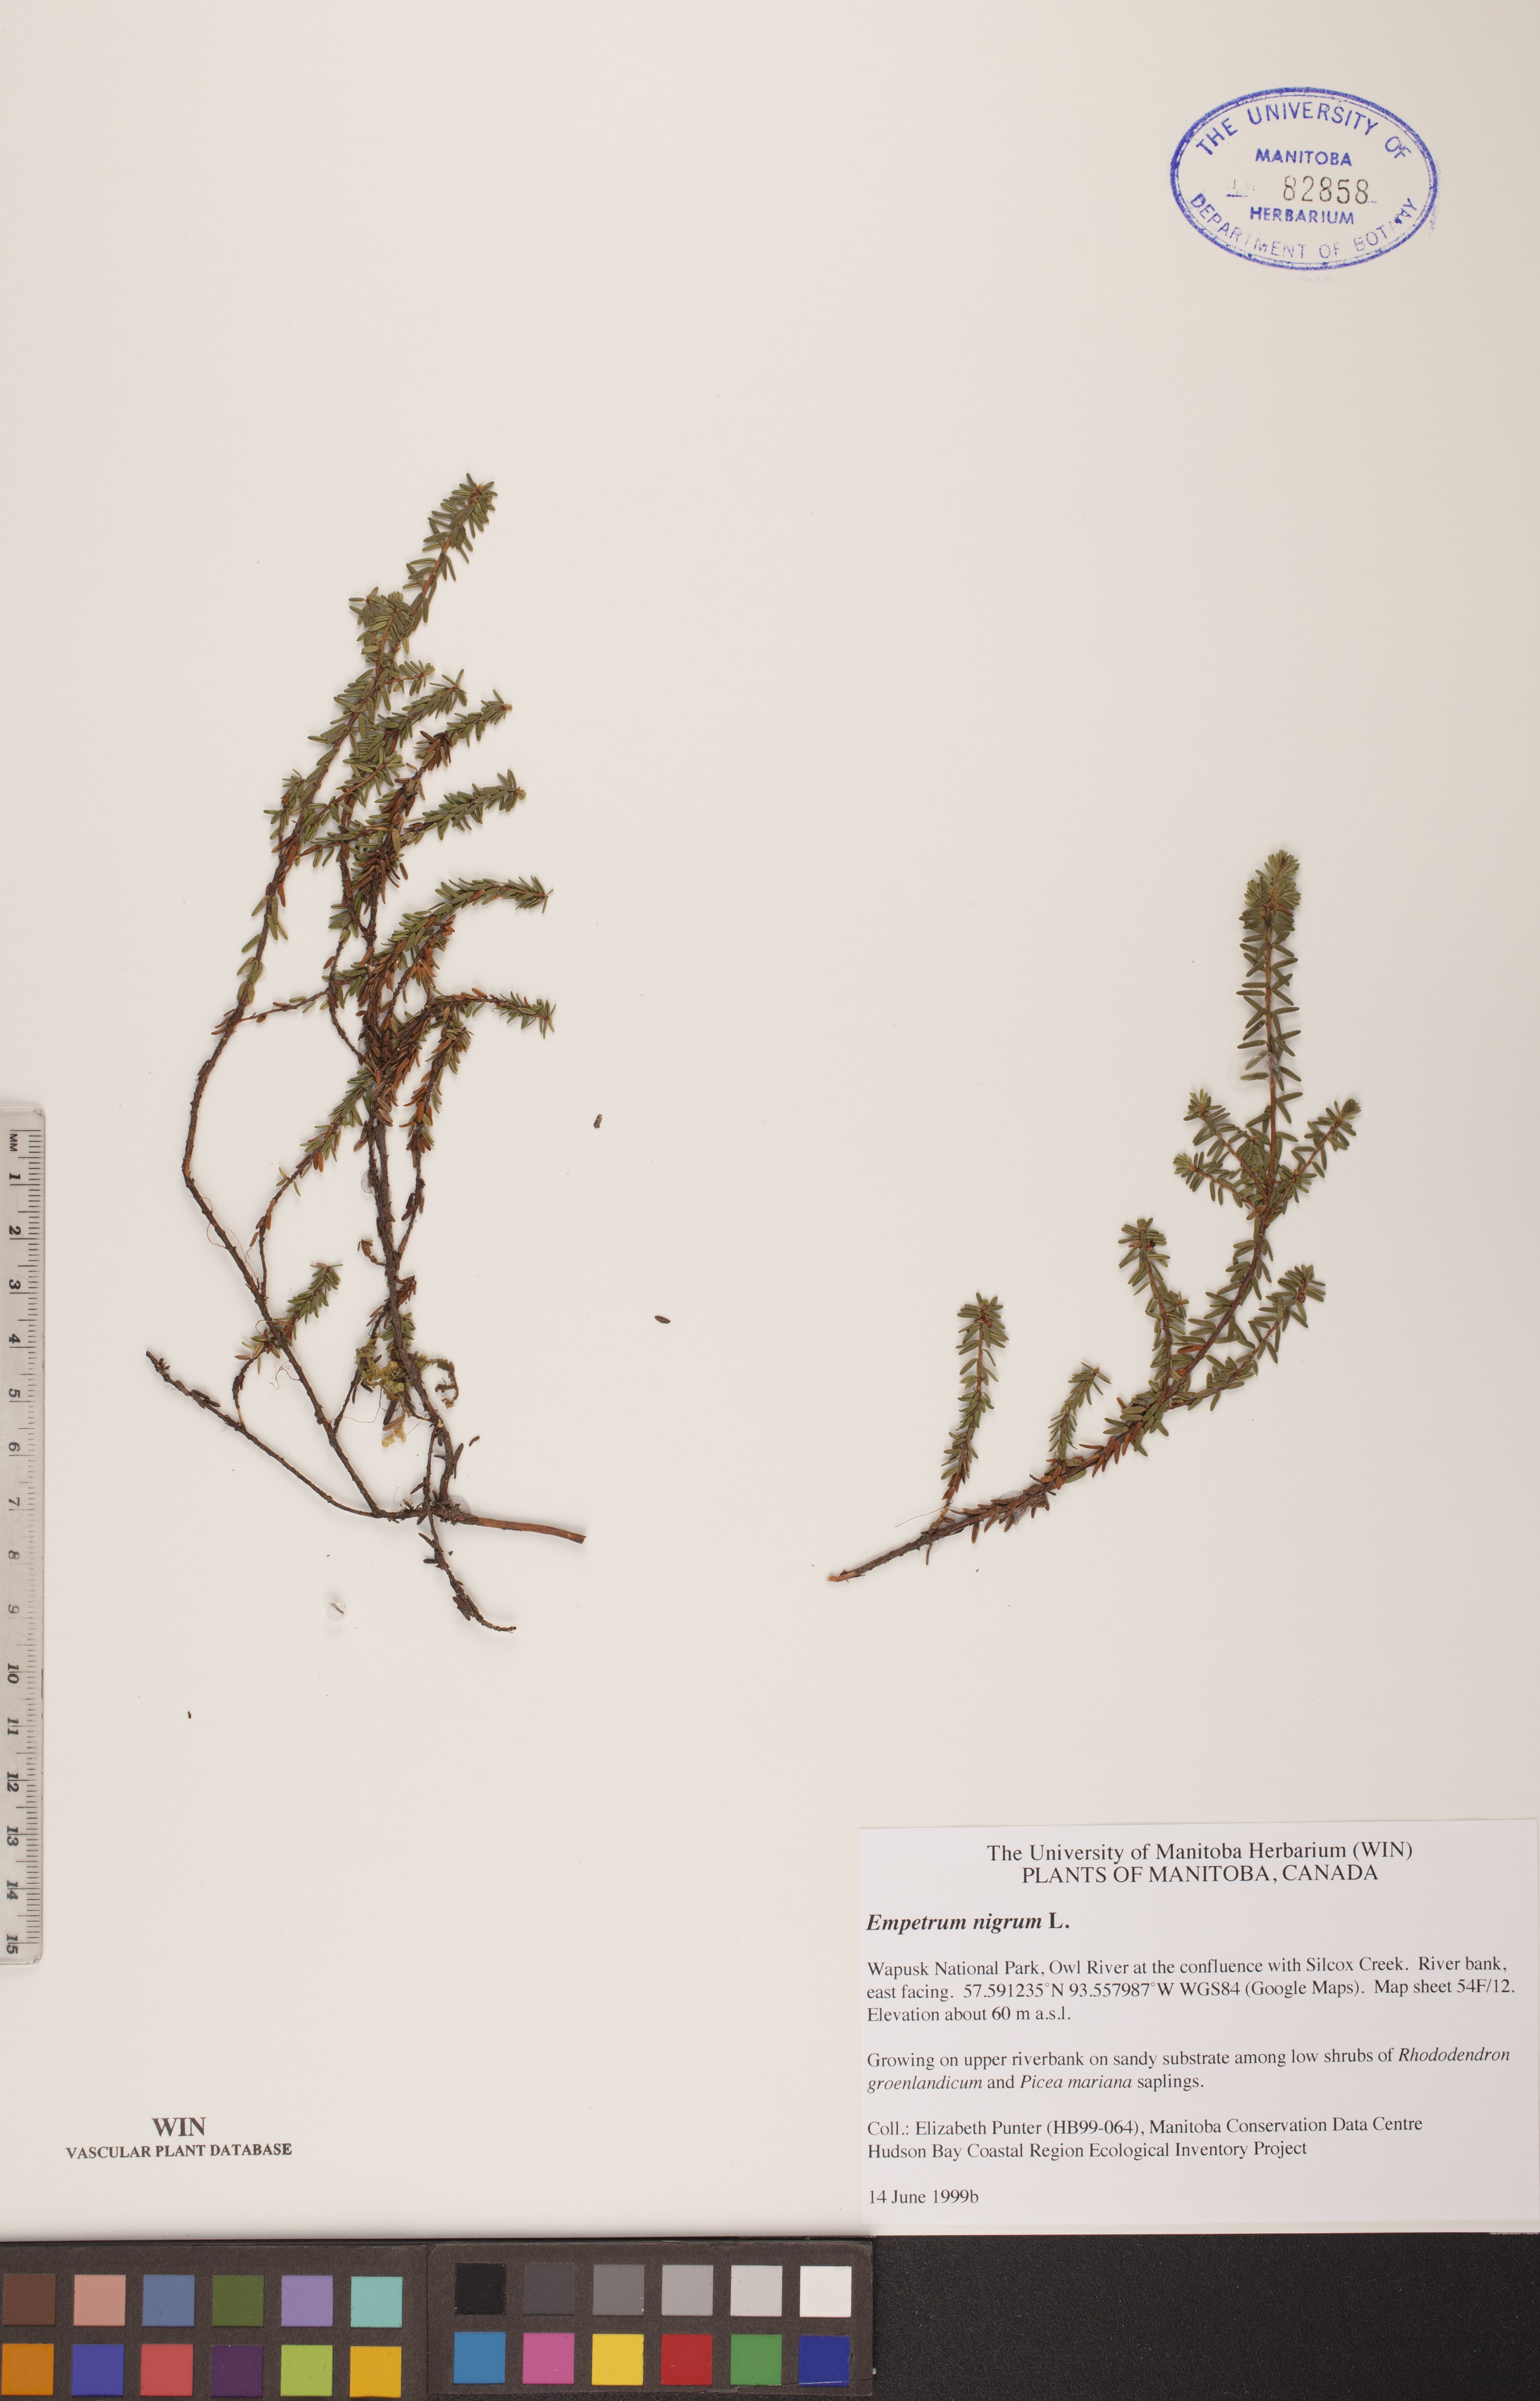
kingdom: Plantae
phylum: Tracheophyta
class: Magnoliopsida
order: Ericales
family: Ericaceae
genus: Empetrum
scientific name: Empetrum nigrum
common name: Black crowberry
